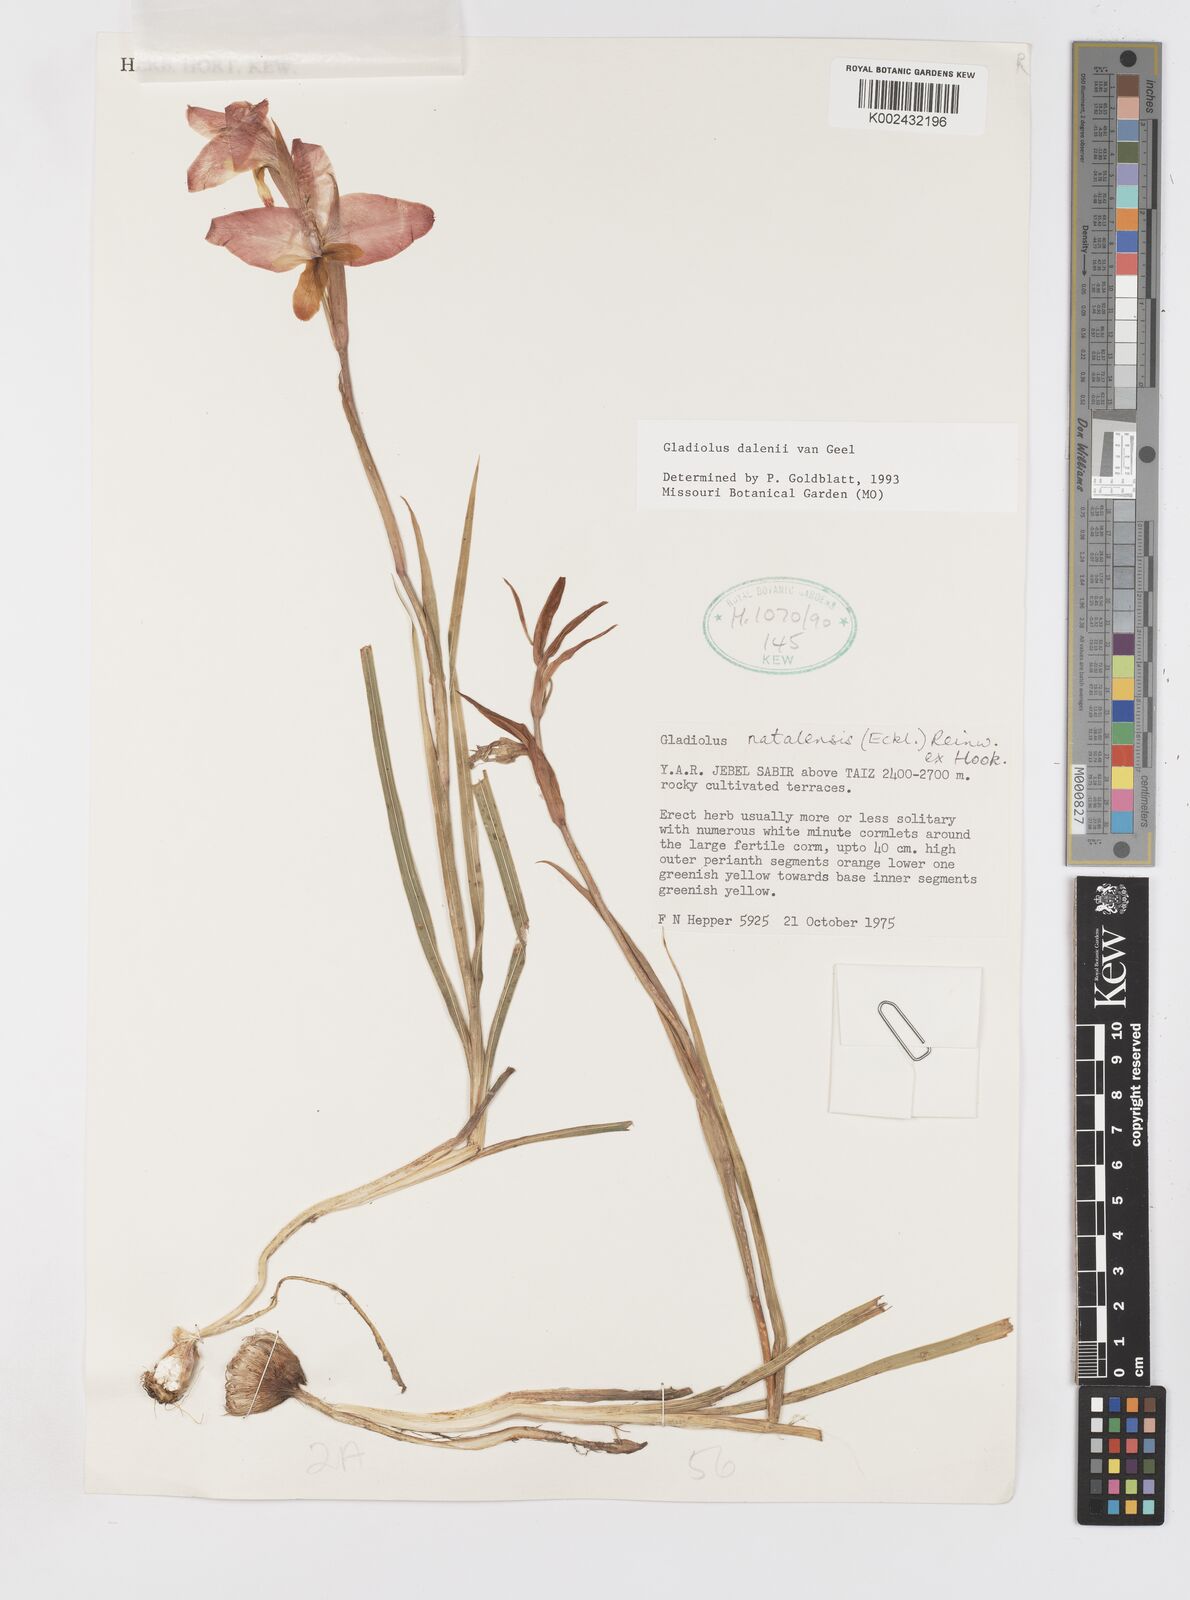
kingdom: Plantae
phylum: Tracheophyta
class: Liliopsida
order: Asparagales
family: Iridaceae
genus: Gladiolus
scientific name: Gladiolus dalenii
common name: Cornflag
